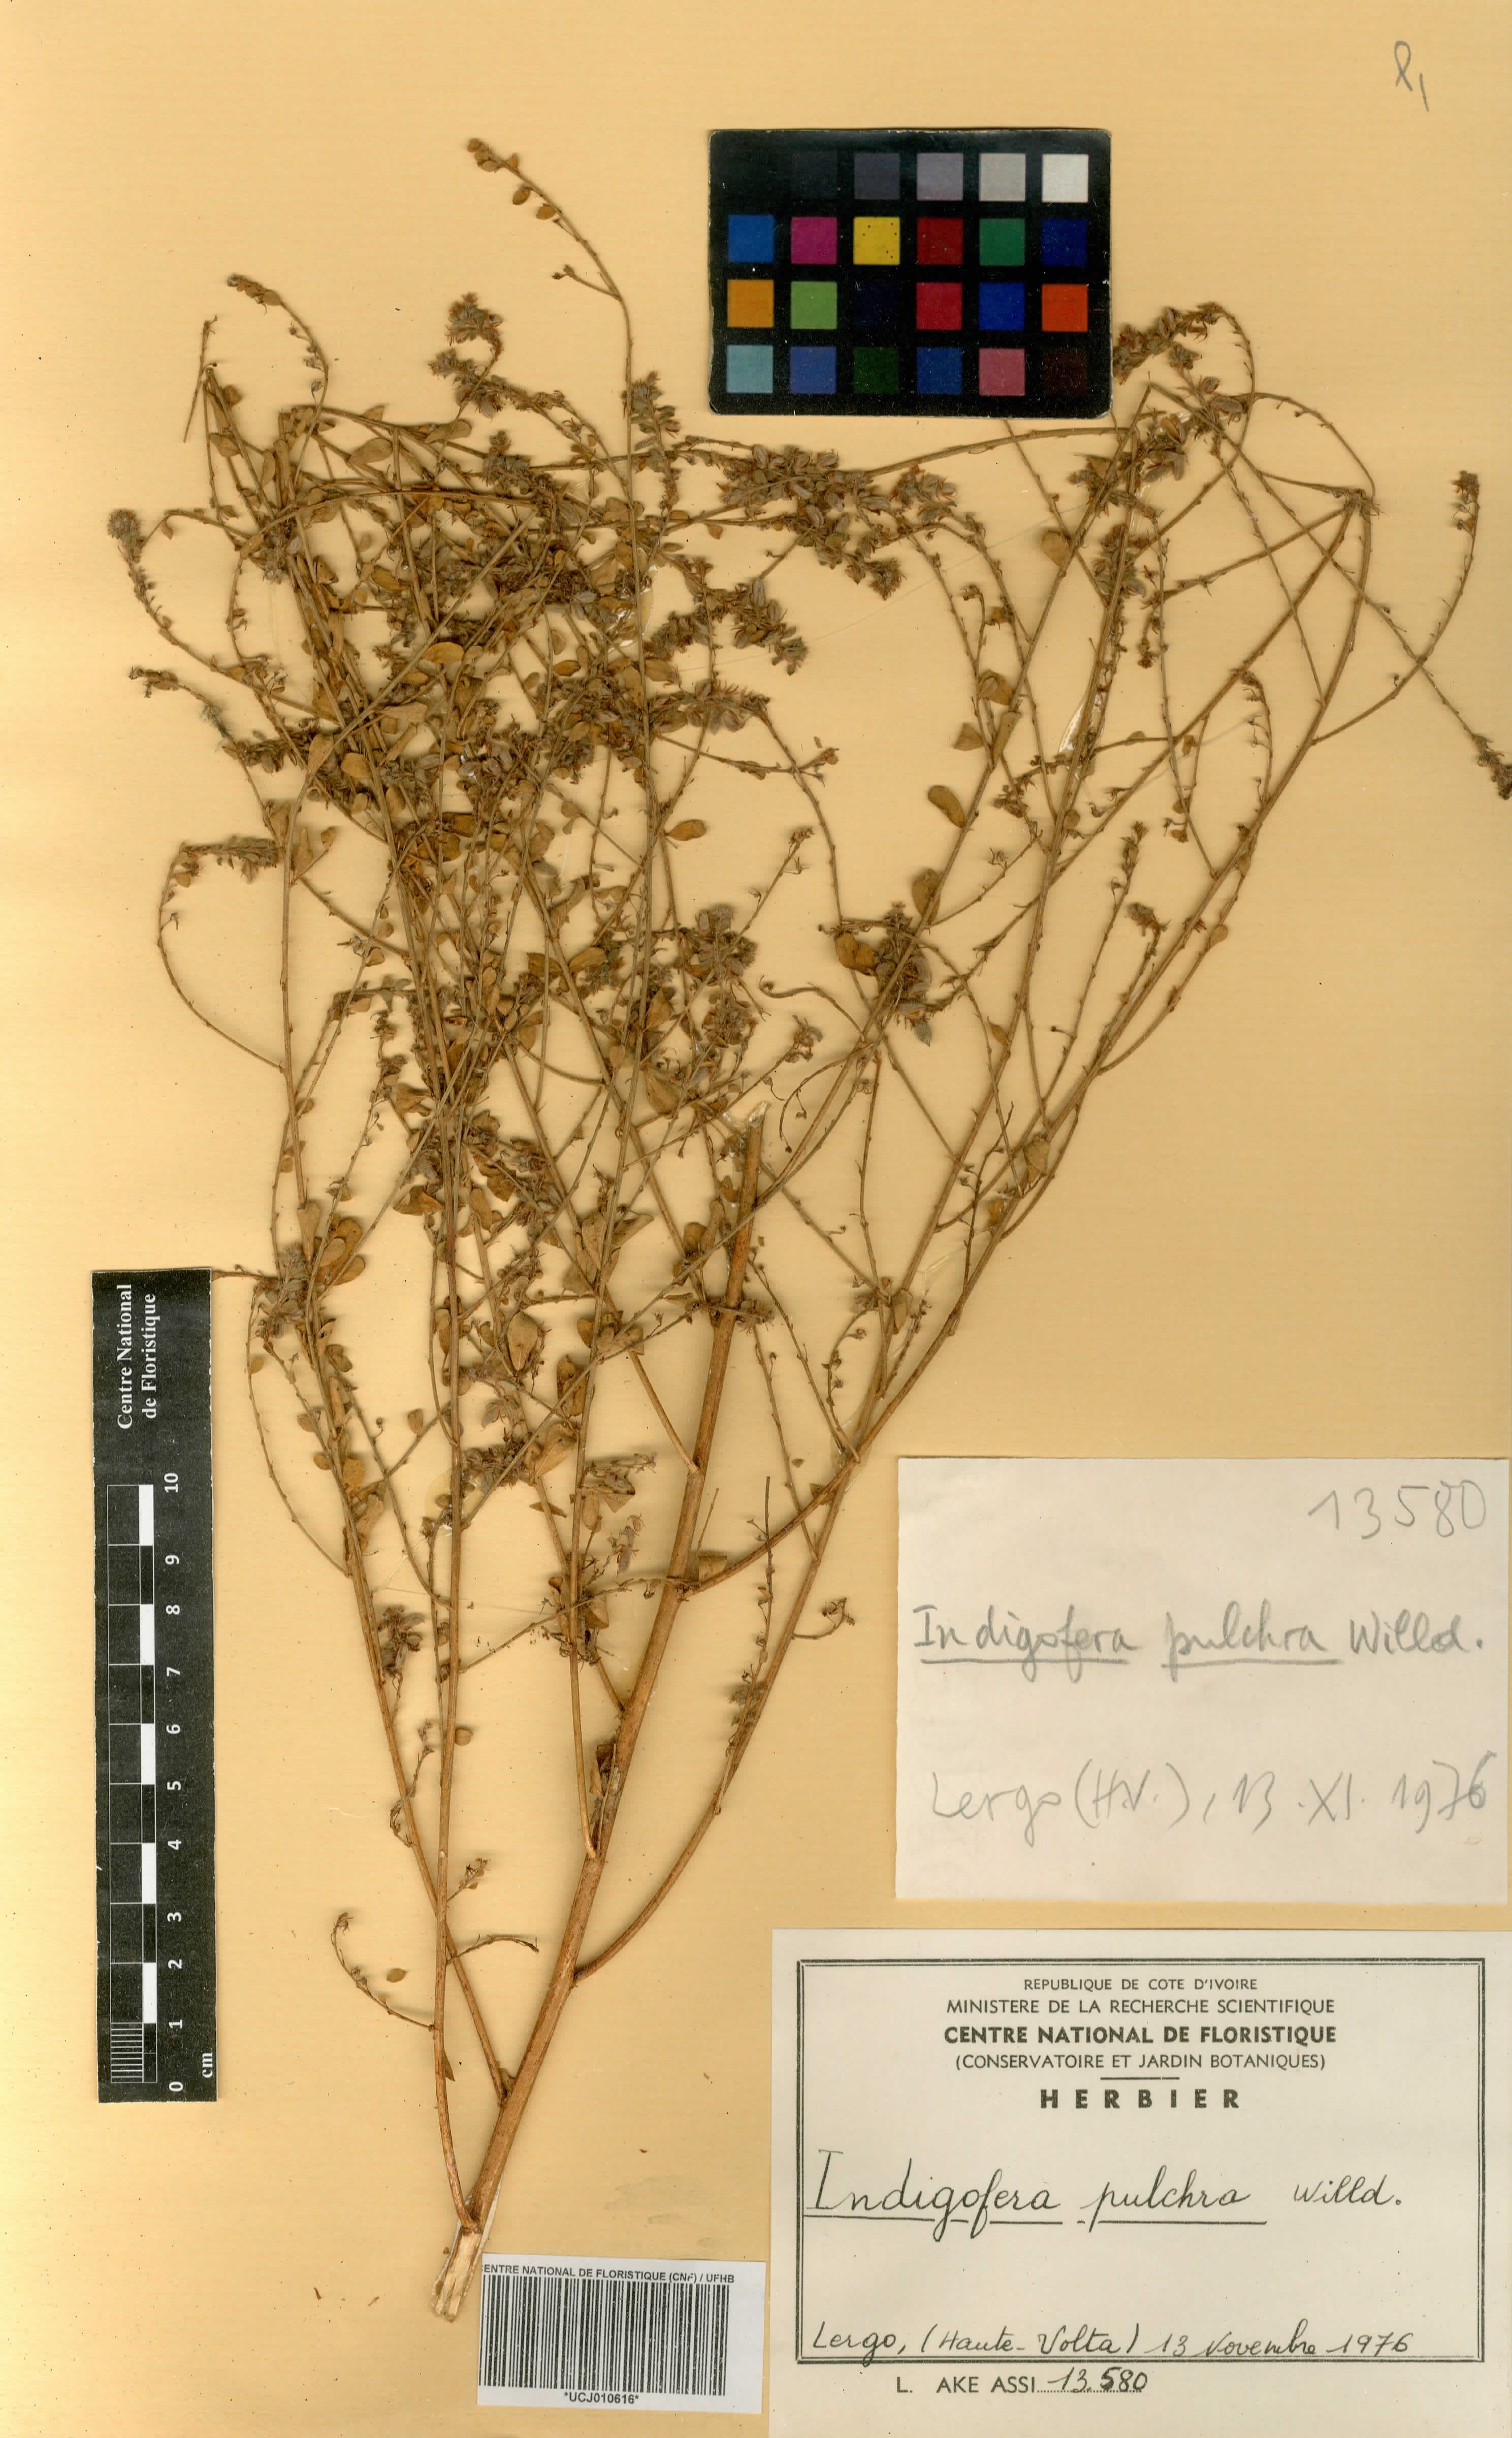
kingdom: Plantae
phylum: Tracheophyta
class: Magnoliopsida
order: Fabales
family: Fabaceae
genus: Indigofera
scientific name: Indigofera pulchra
